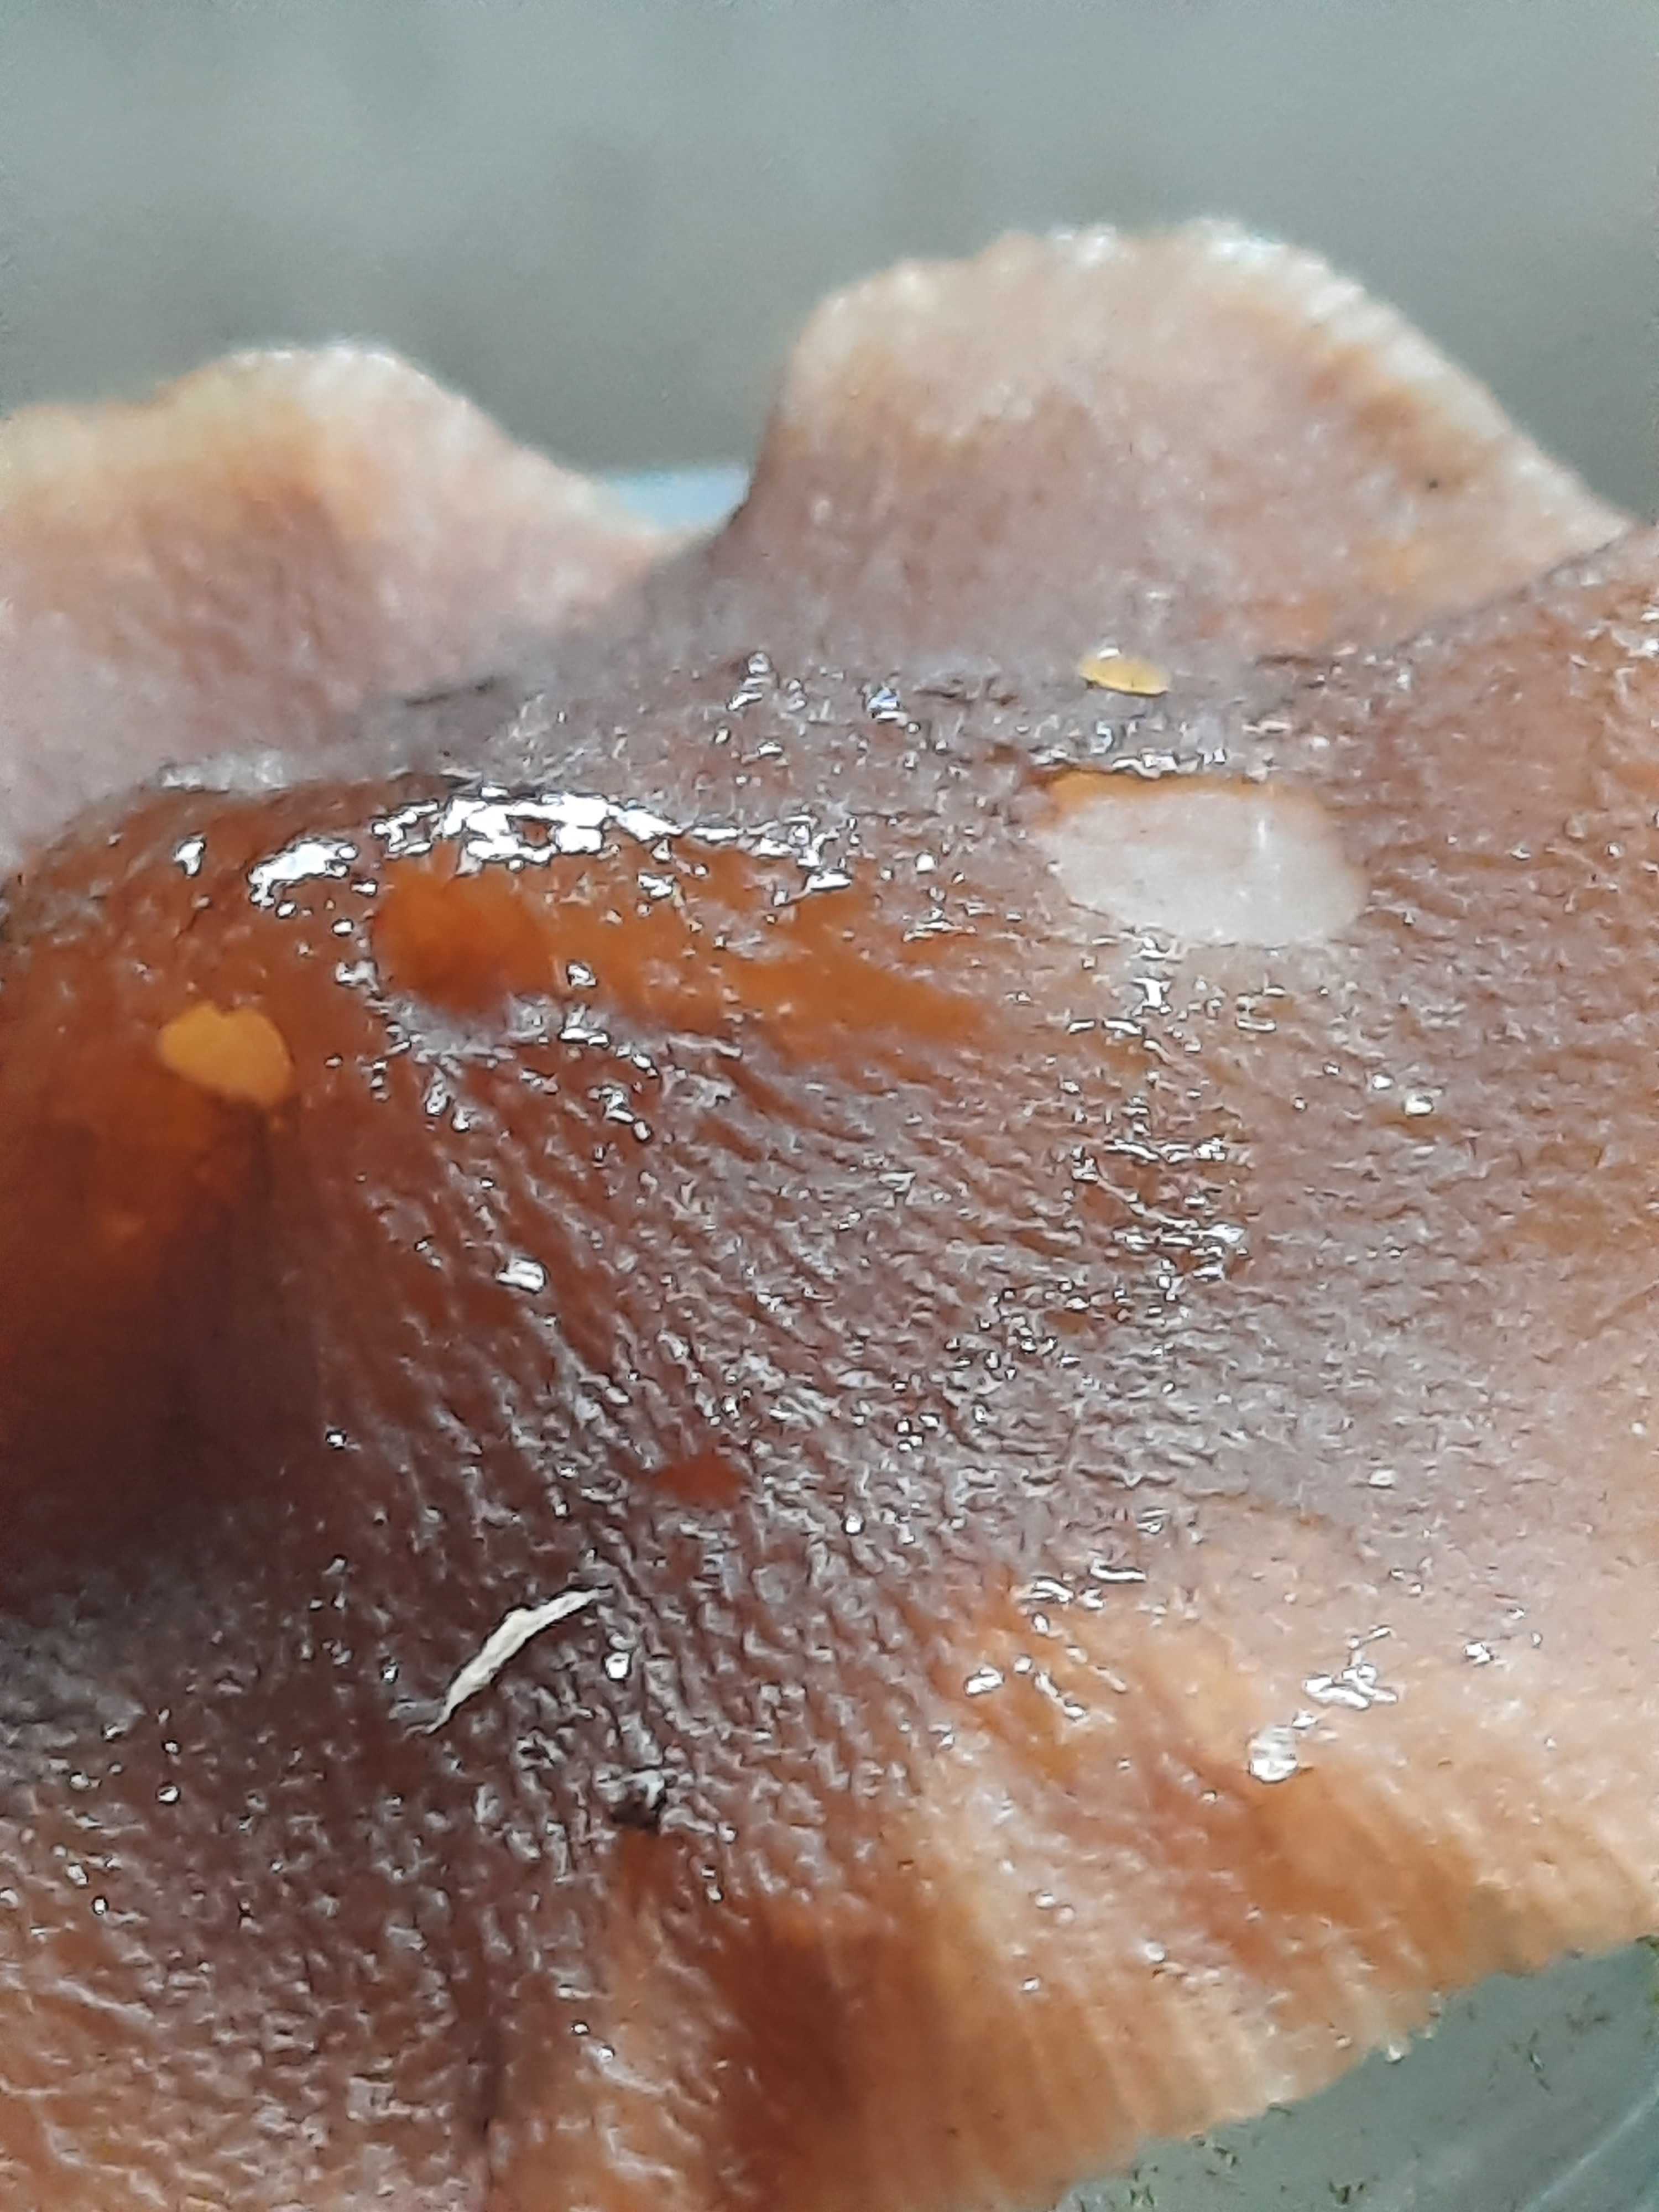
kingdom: Fungi
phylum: Basidiomycota
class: Agaricomycetes
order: Agaricales
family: Pluteaceae
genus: Pluteus
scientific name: Pluteus phlebophorus
